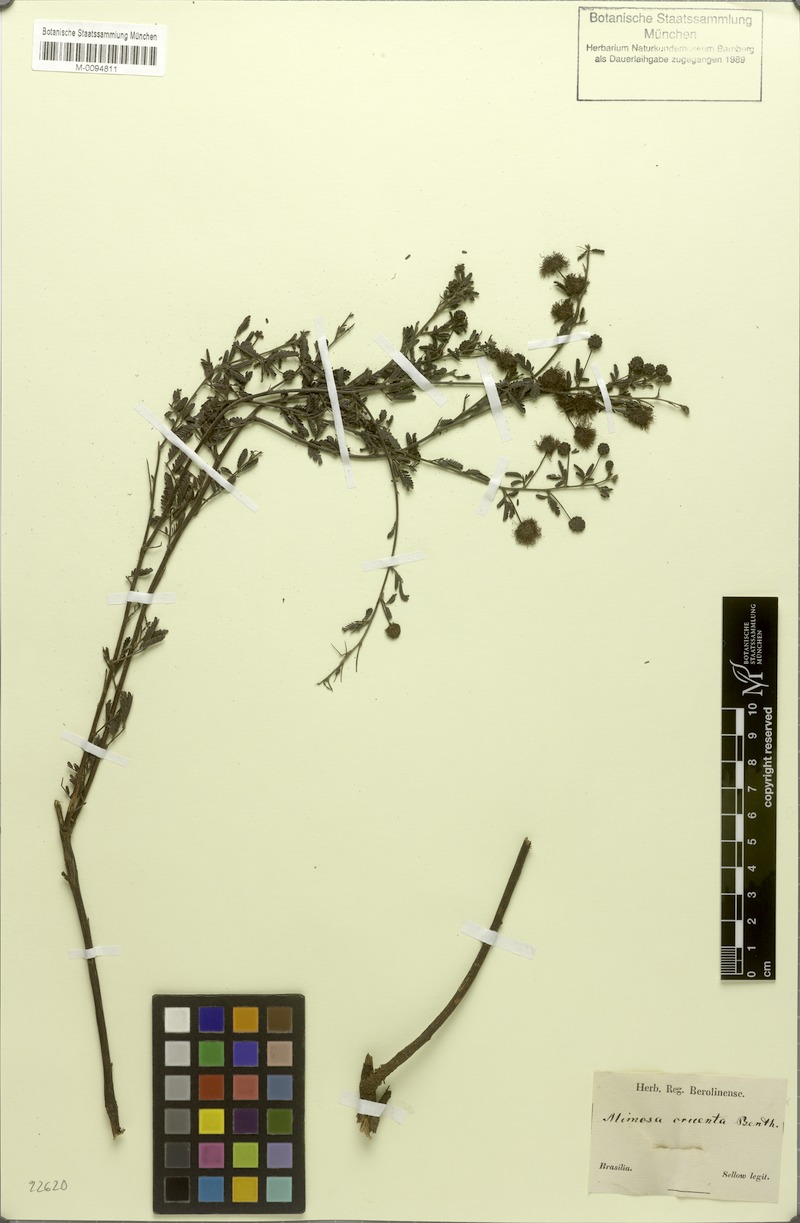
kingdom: Plantae
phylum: Tracheophyta
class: Magnoliopsida
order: Fabales
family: Fabaceae
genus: Mimosa
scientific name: Mimosa cruenta
